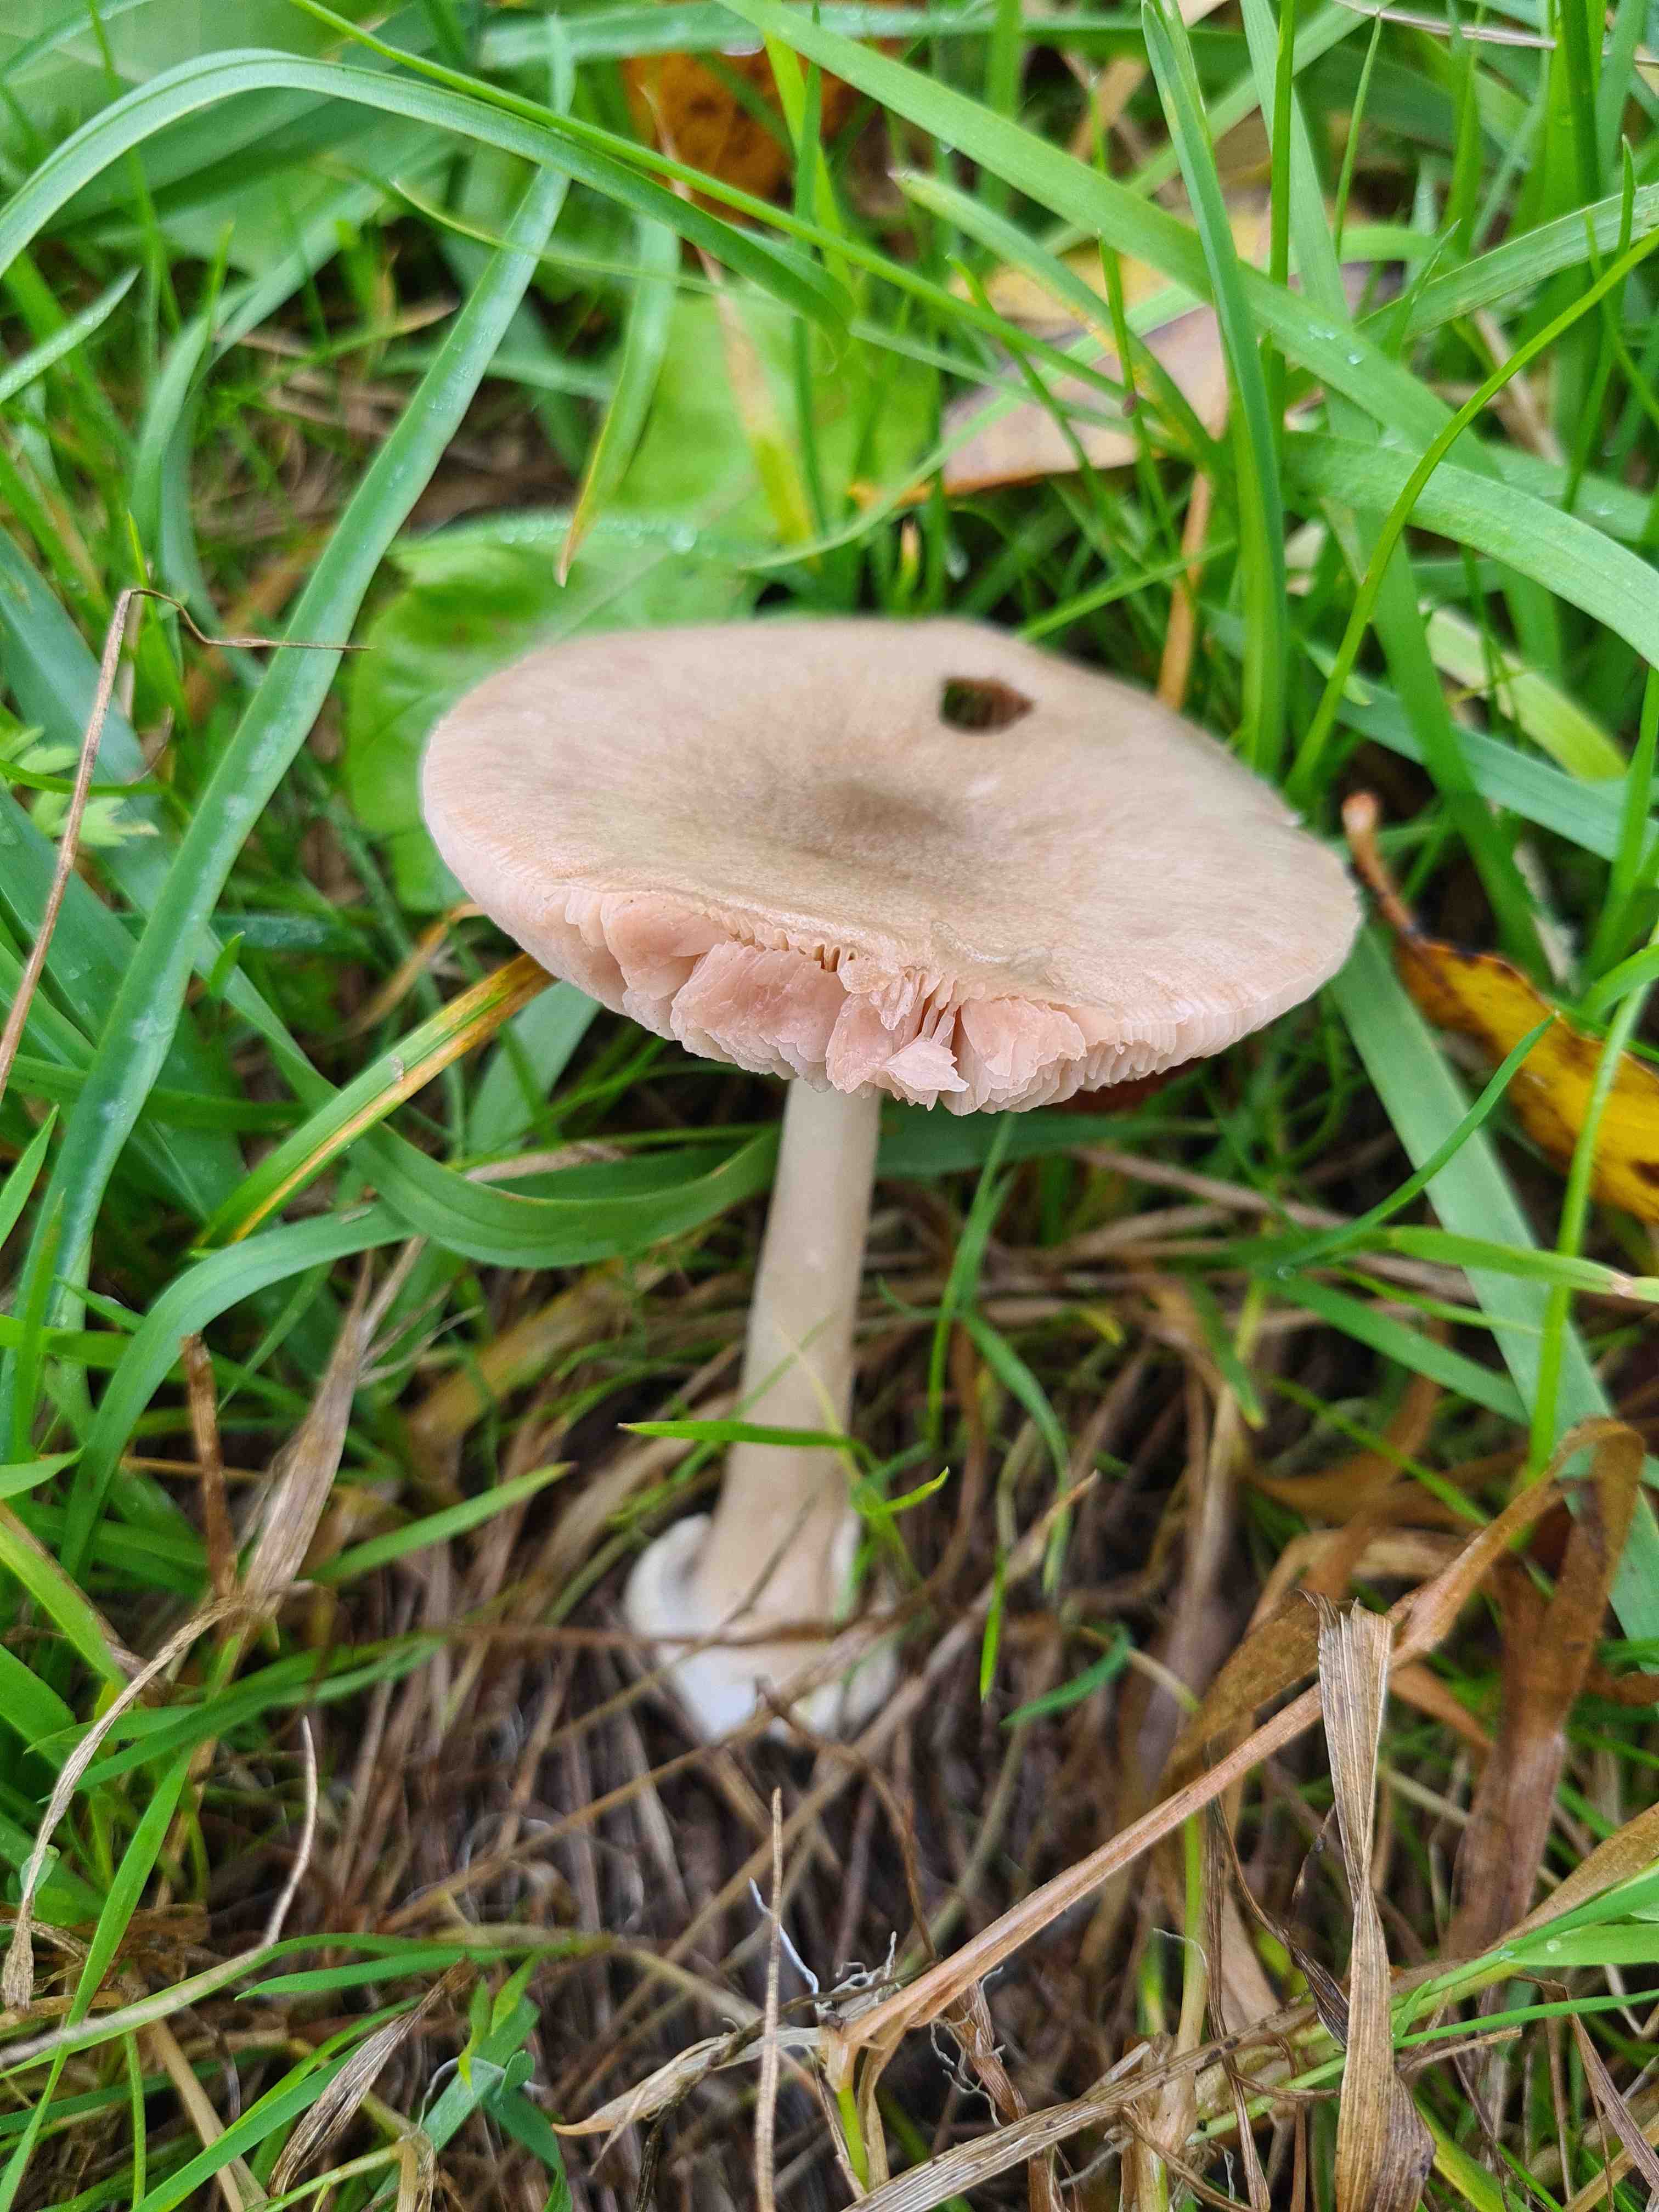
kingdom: Fungi
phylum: Basidiomycota
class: Agaricomycetes
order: Agaricales
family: Pluteaceae
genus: Volvopluteus
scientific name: Volvopluteus gloiocephalus
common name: høj posesvamp
